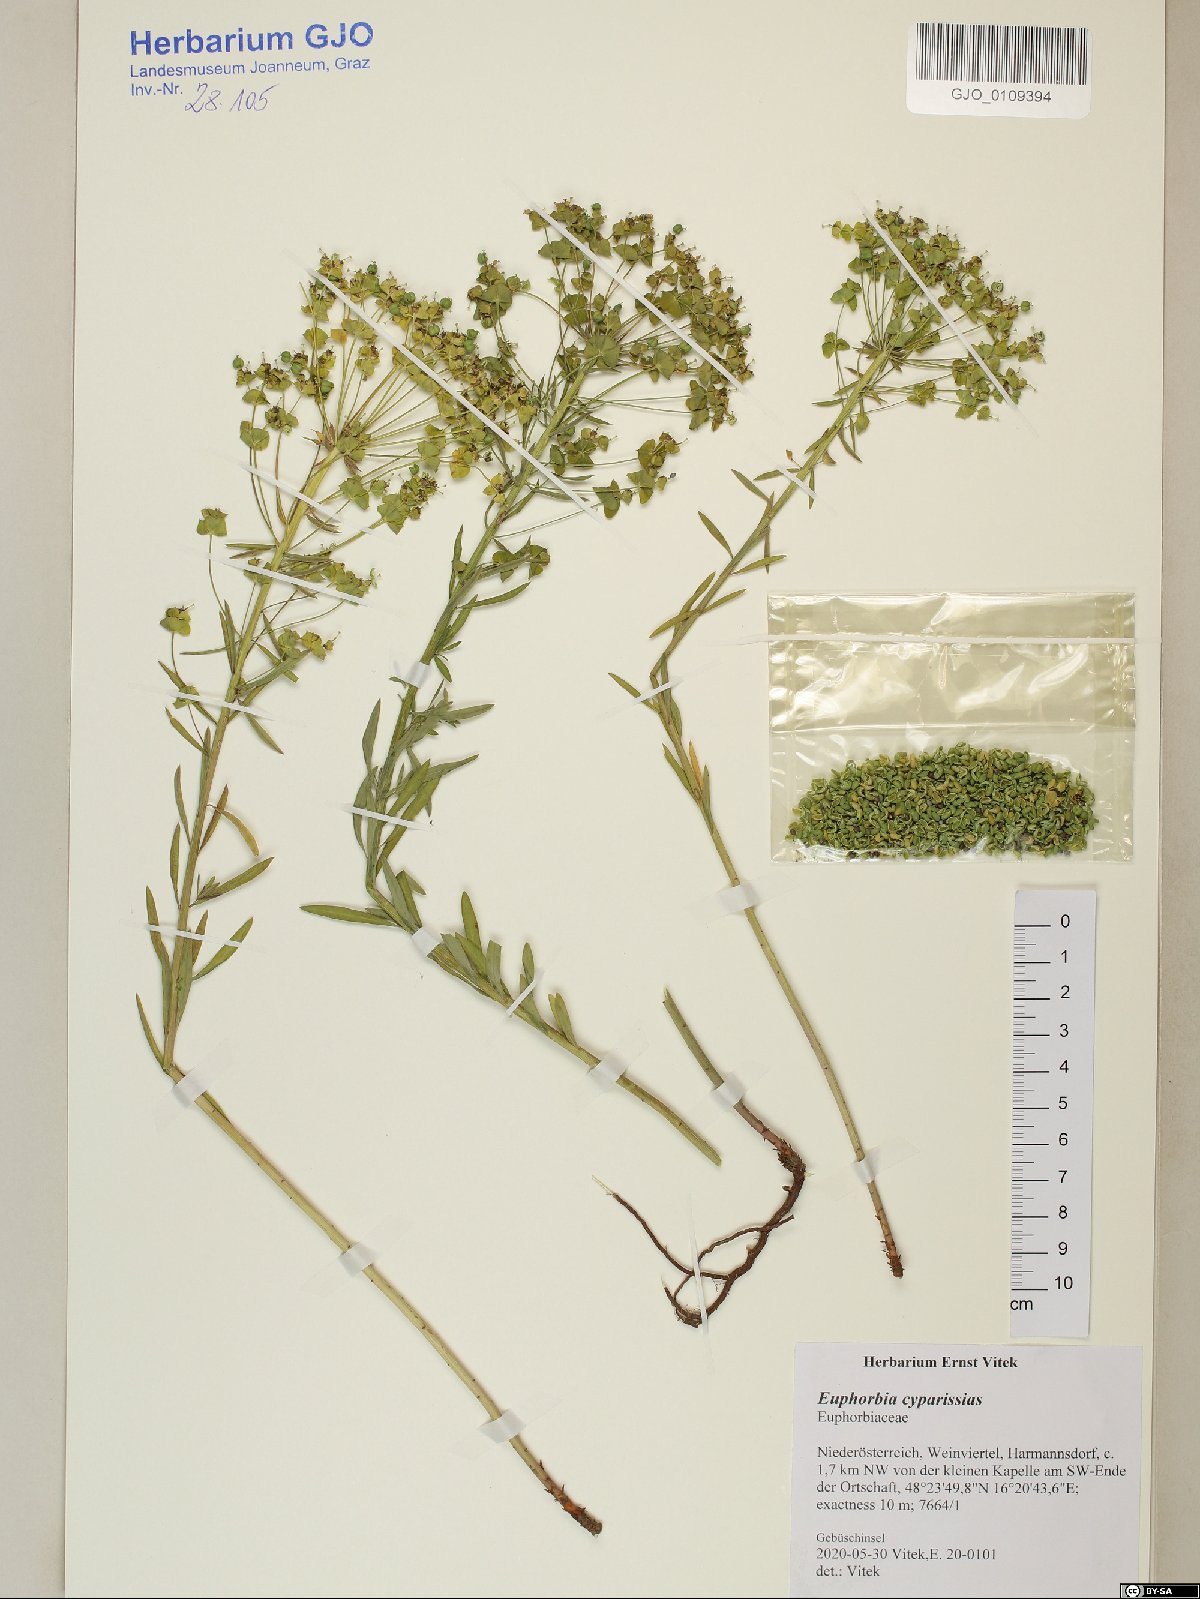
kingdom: Plantae
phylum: Tracheophyta
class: Magnoliopsida
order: Malpighiales
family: Euphorbiaceae
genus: Euphorbia
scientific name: Euphorbia cyparissias
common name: Cypress spurge
